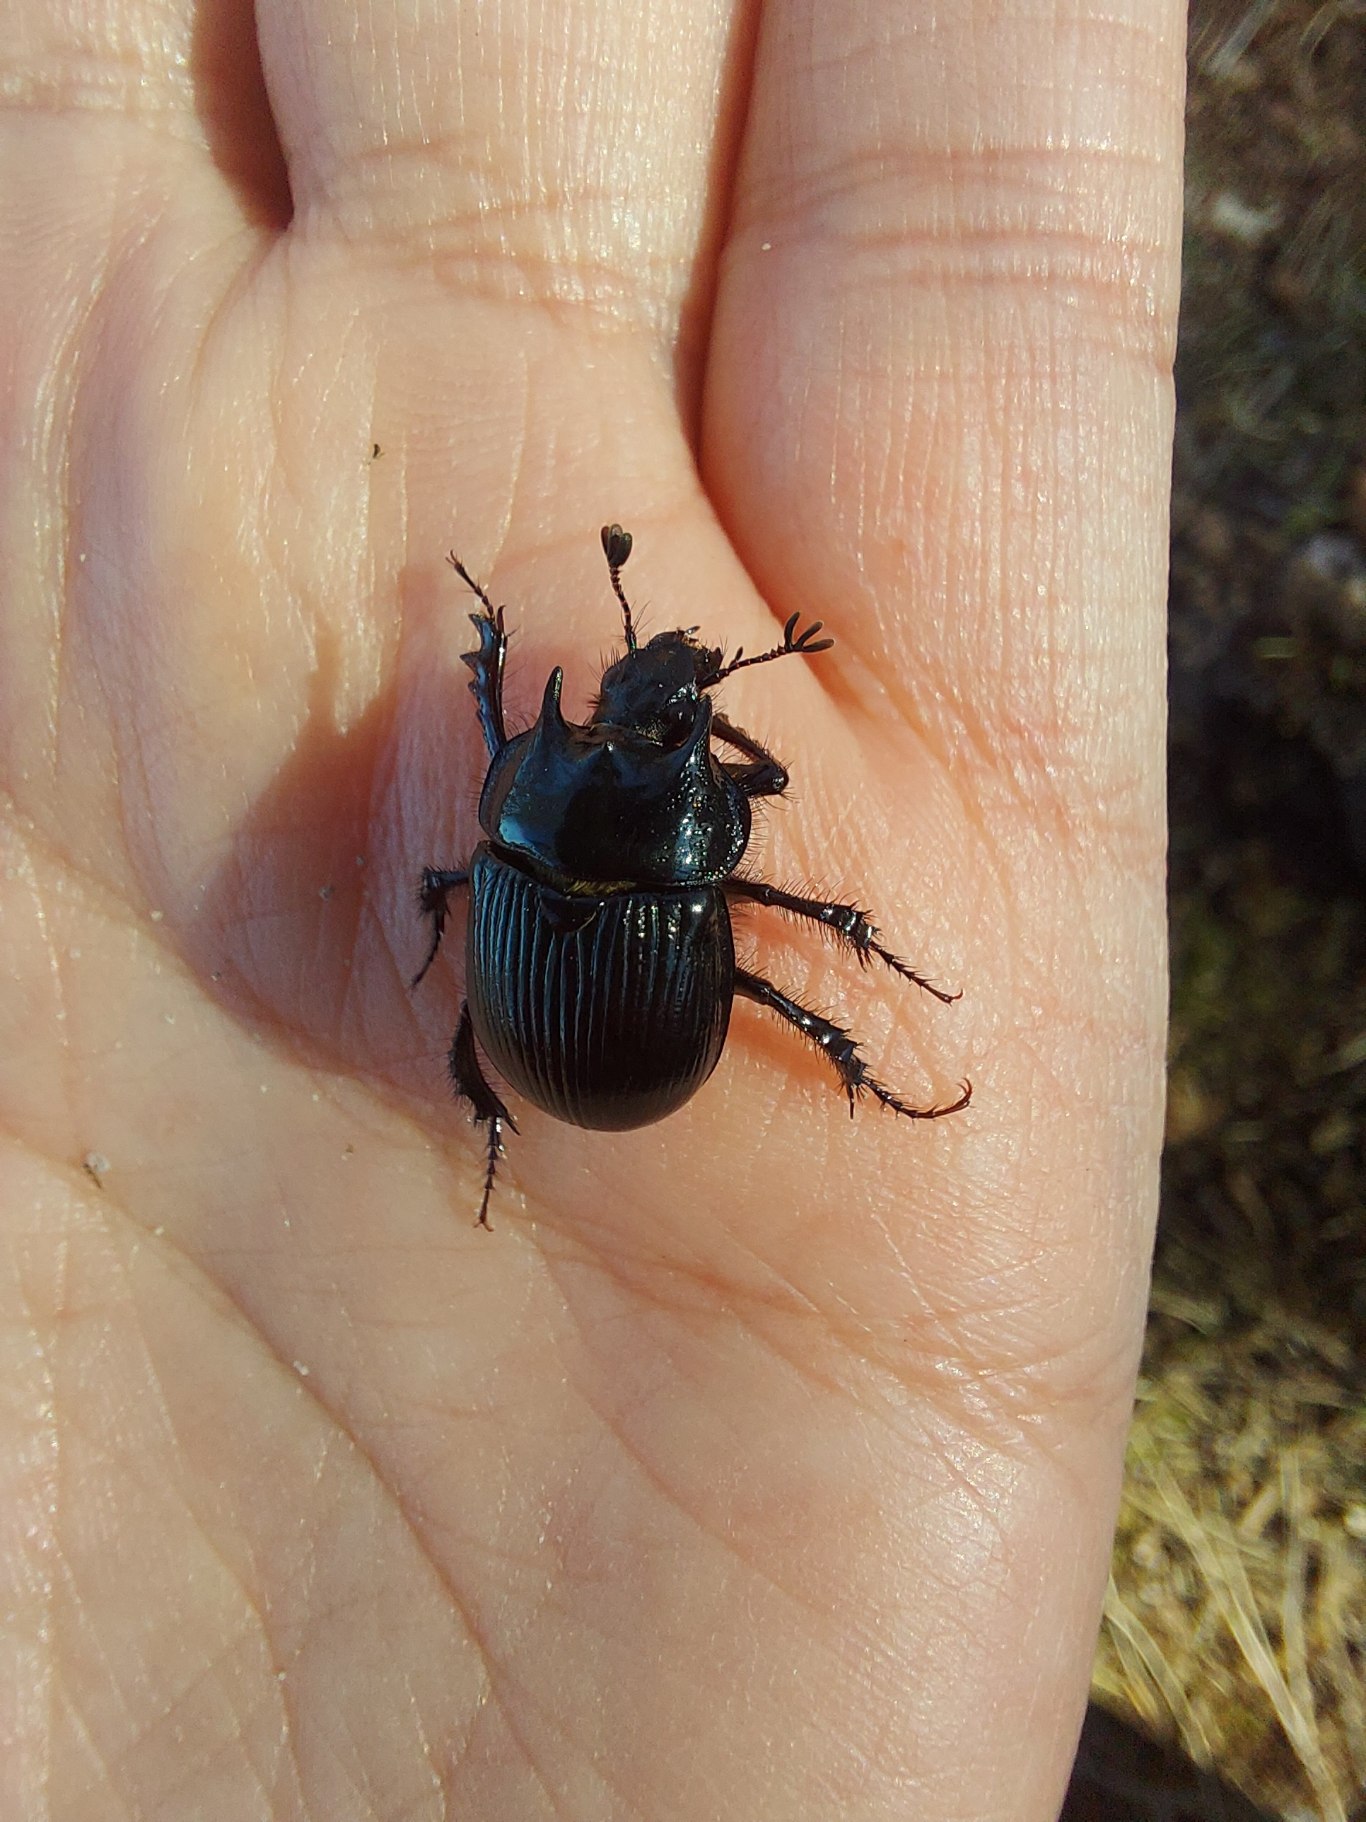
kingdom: Animalia
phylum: Arthropoda
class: Insecta
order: Coleoptera
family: Geotrupidae
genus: Typhaeus
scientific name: Typhaeus typhoeus
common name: Trehornet skarnbasse
